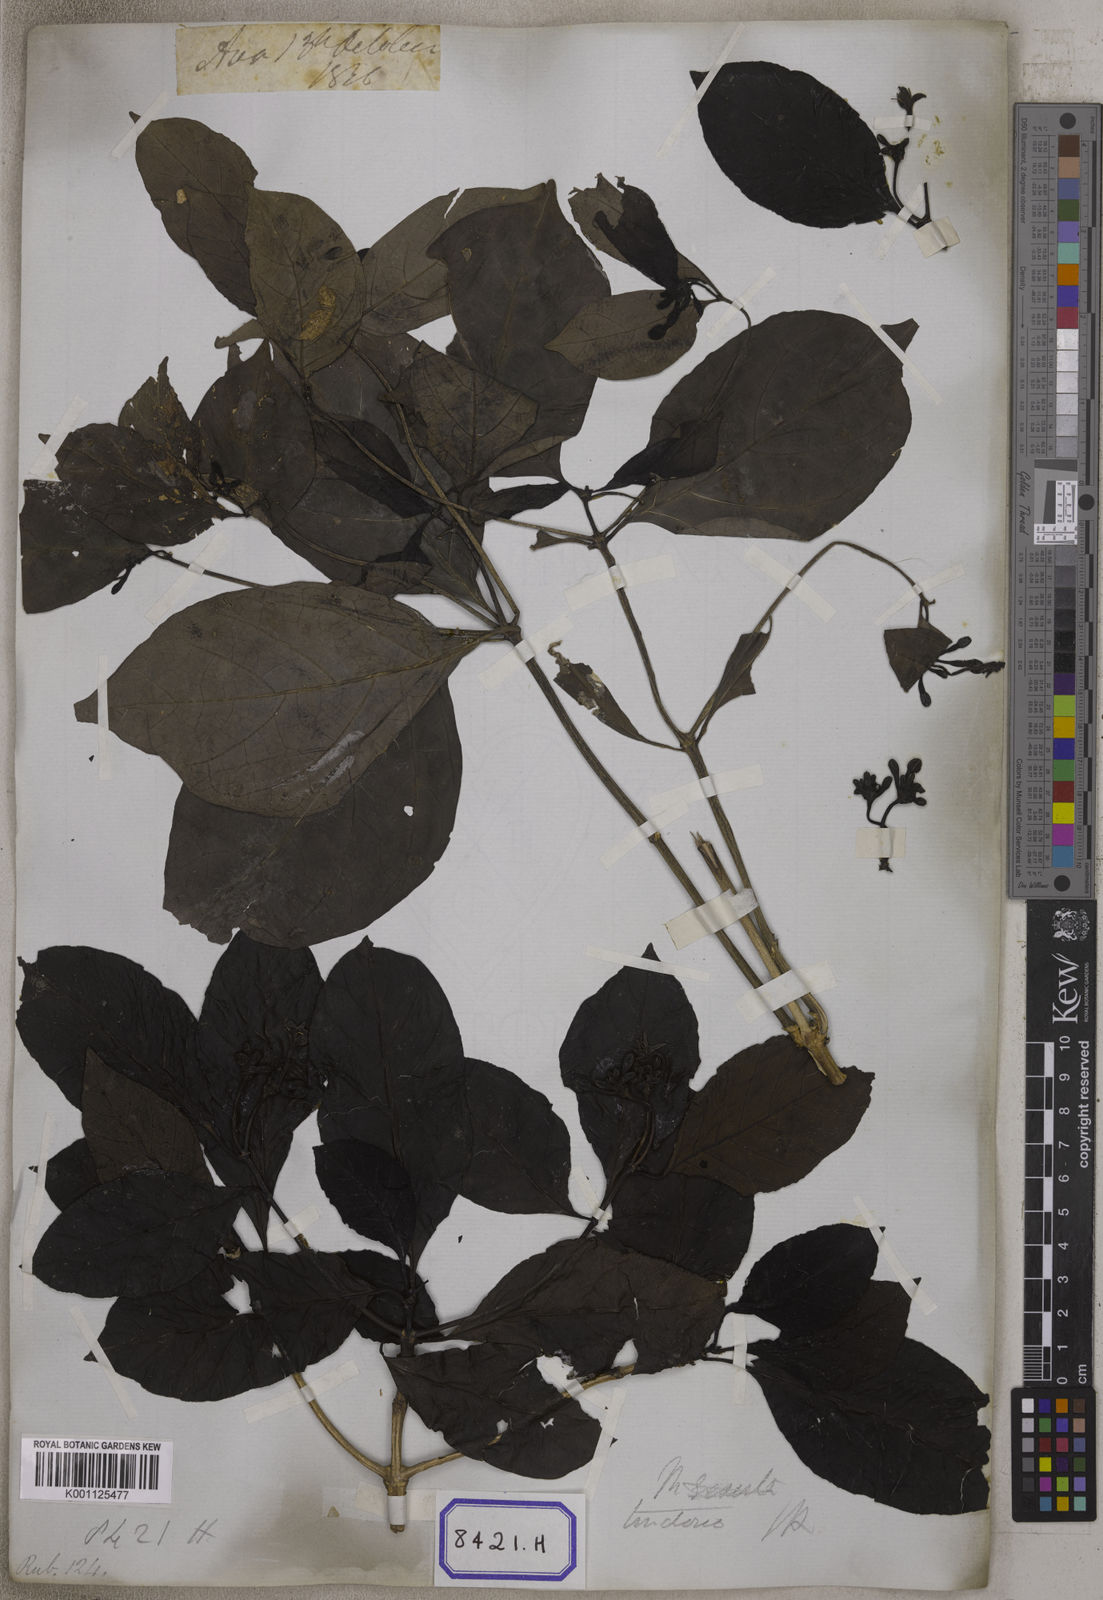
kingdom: Plantae
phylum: Tracheophyta
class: Magnoliopsida
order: Gentianales
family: Rubiaceae
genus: Morinda
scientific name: Morinda coreia
